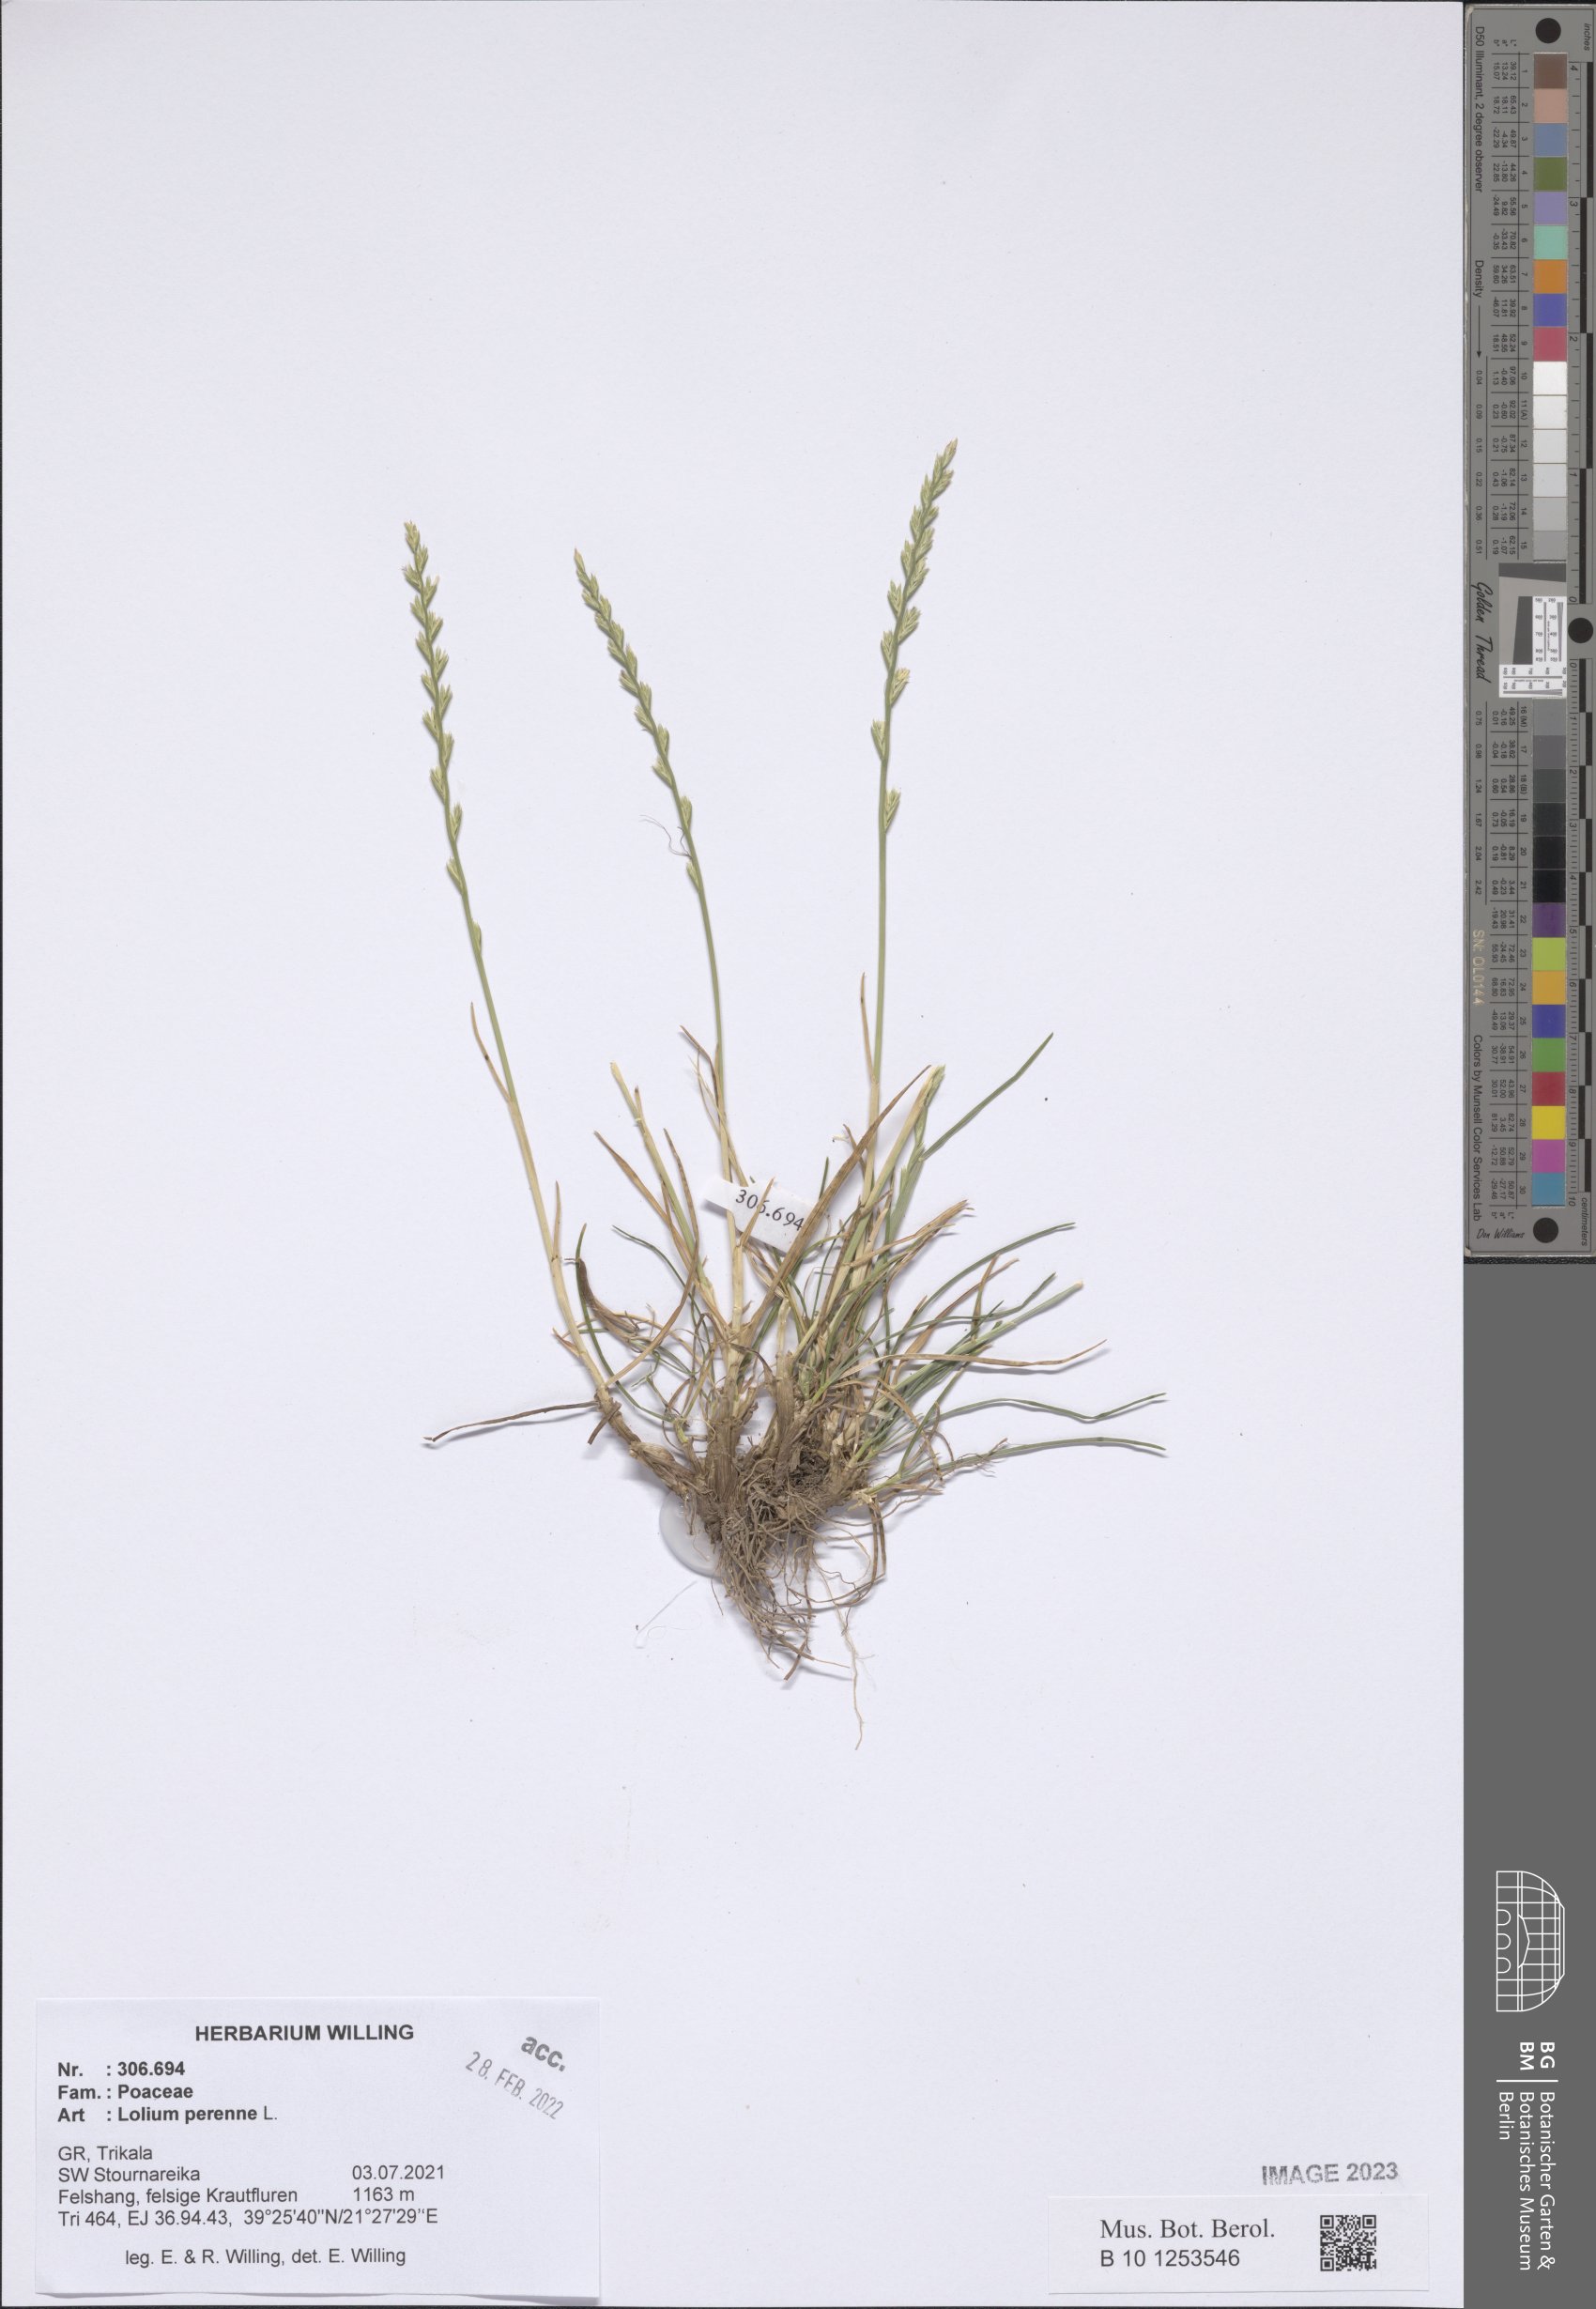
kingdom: Plantae
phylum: Tracheophyta
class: Liliopsida
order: Poales
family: Poaceae
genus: Lolium
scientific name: Lolium perenne
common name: Perennial ryegrass
